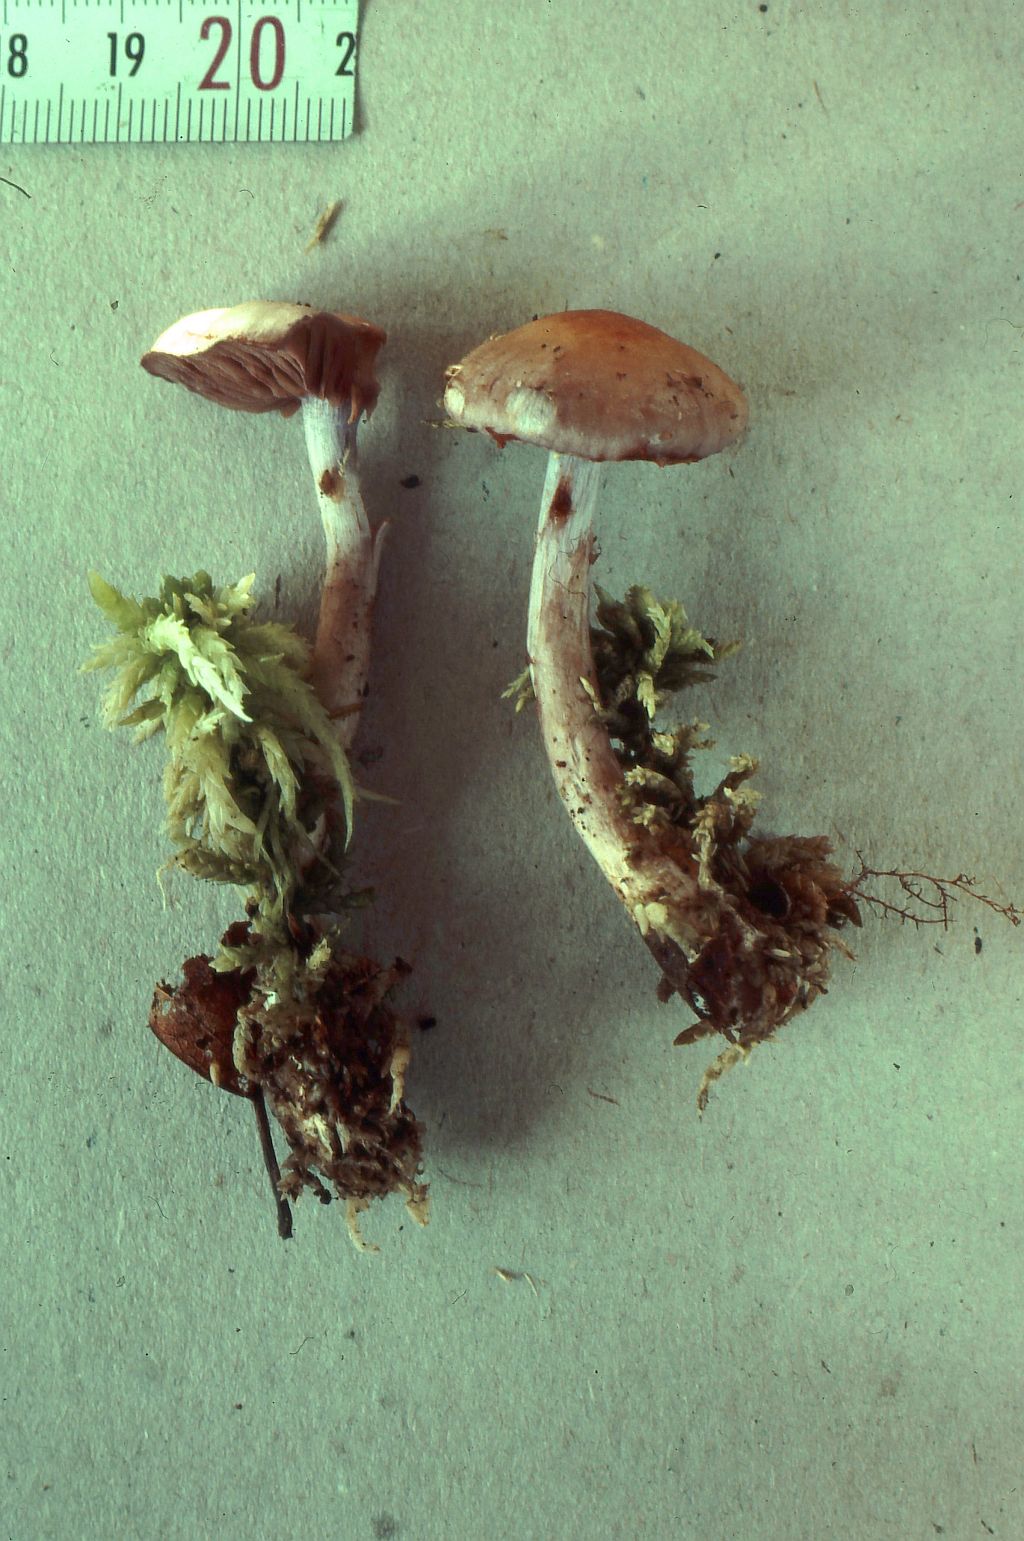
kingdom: Fungi
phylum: Basidiomycota
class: Agaricomycetes
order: Agaricales
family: Cortinariaceae
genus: Cortinarius
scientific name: Cortinarius betulinus
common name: akvamarin-slørhat
